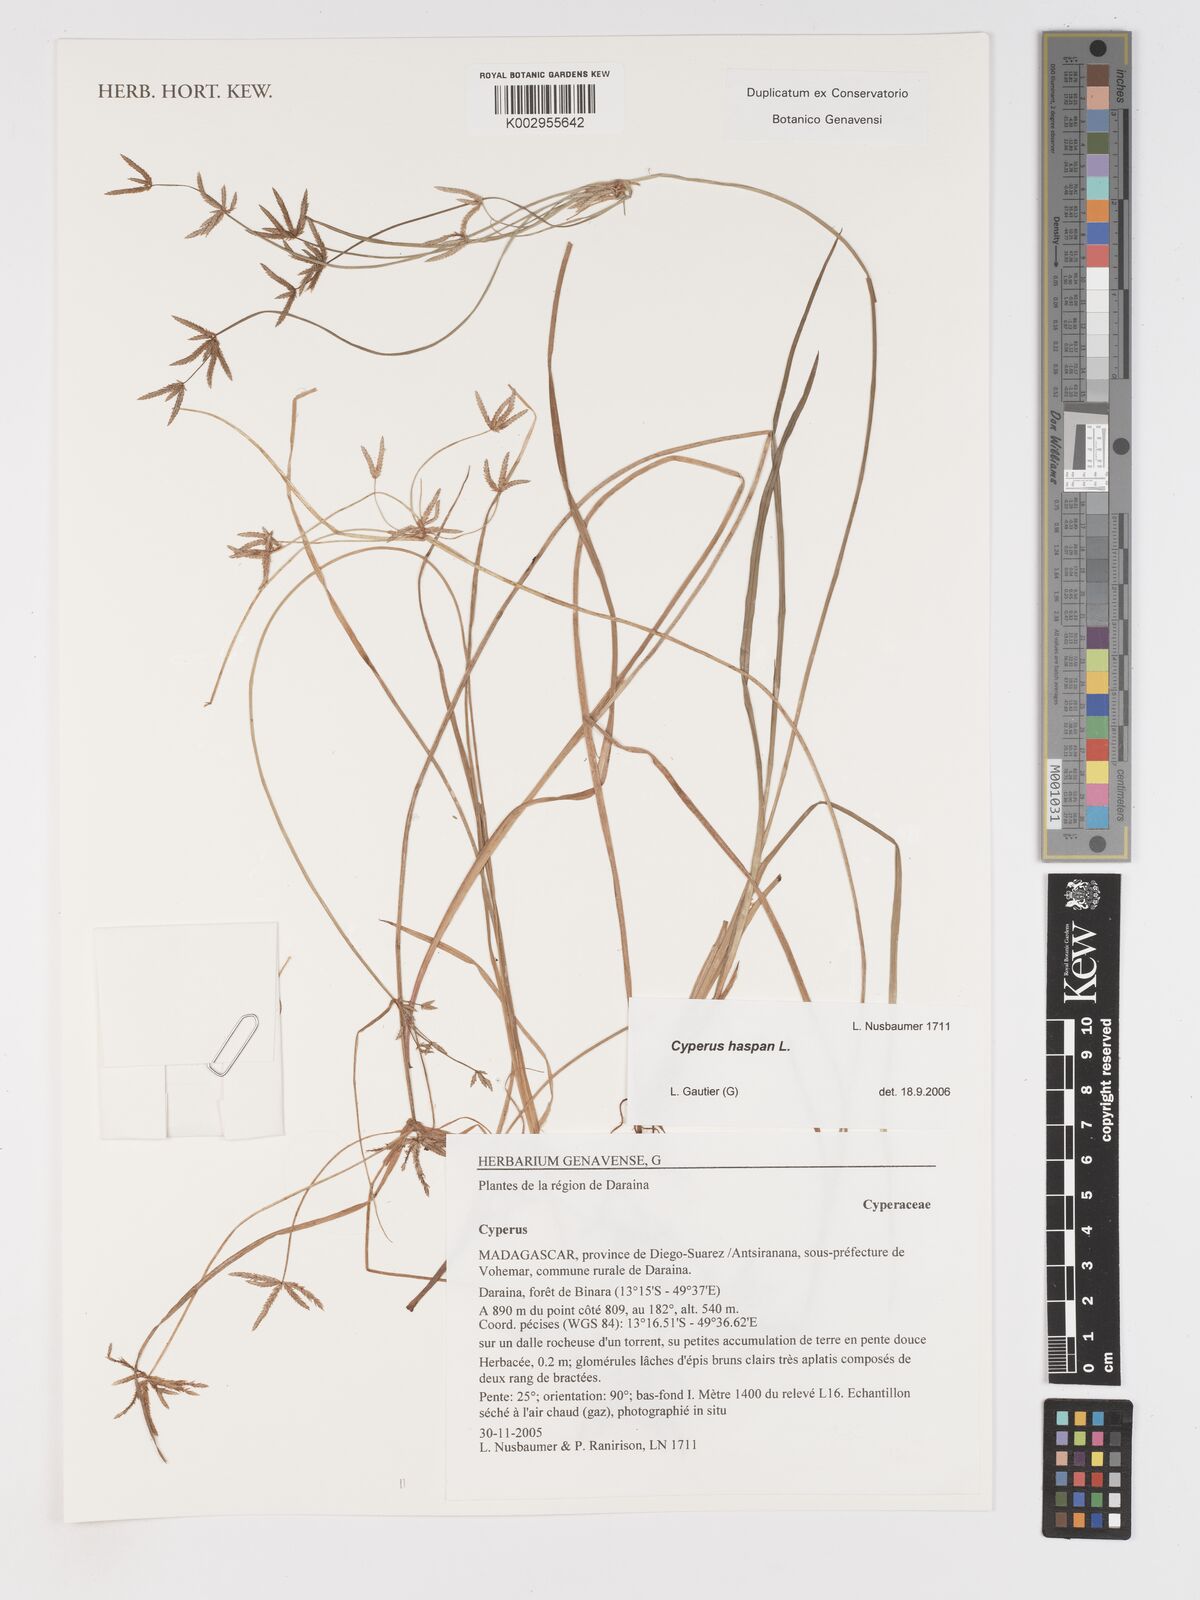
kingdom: Plantae
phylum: Tracheophyta
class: Liliopsida
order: Poales
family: Cyperaceae
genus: Cyperus
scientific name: Cyperus haspan
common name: Haspan flatsedge
